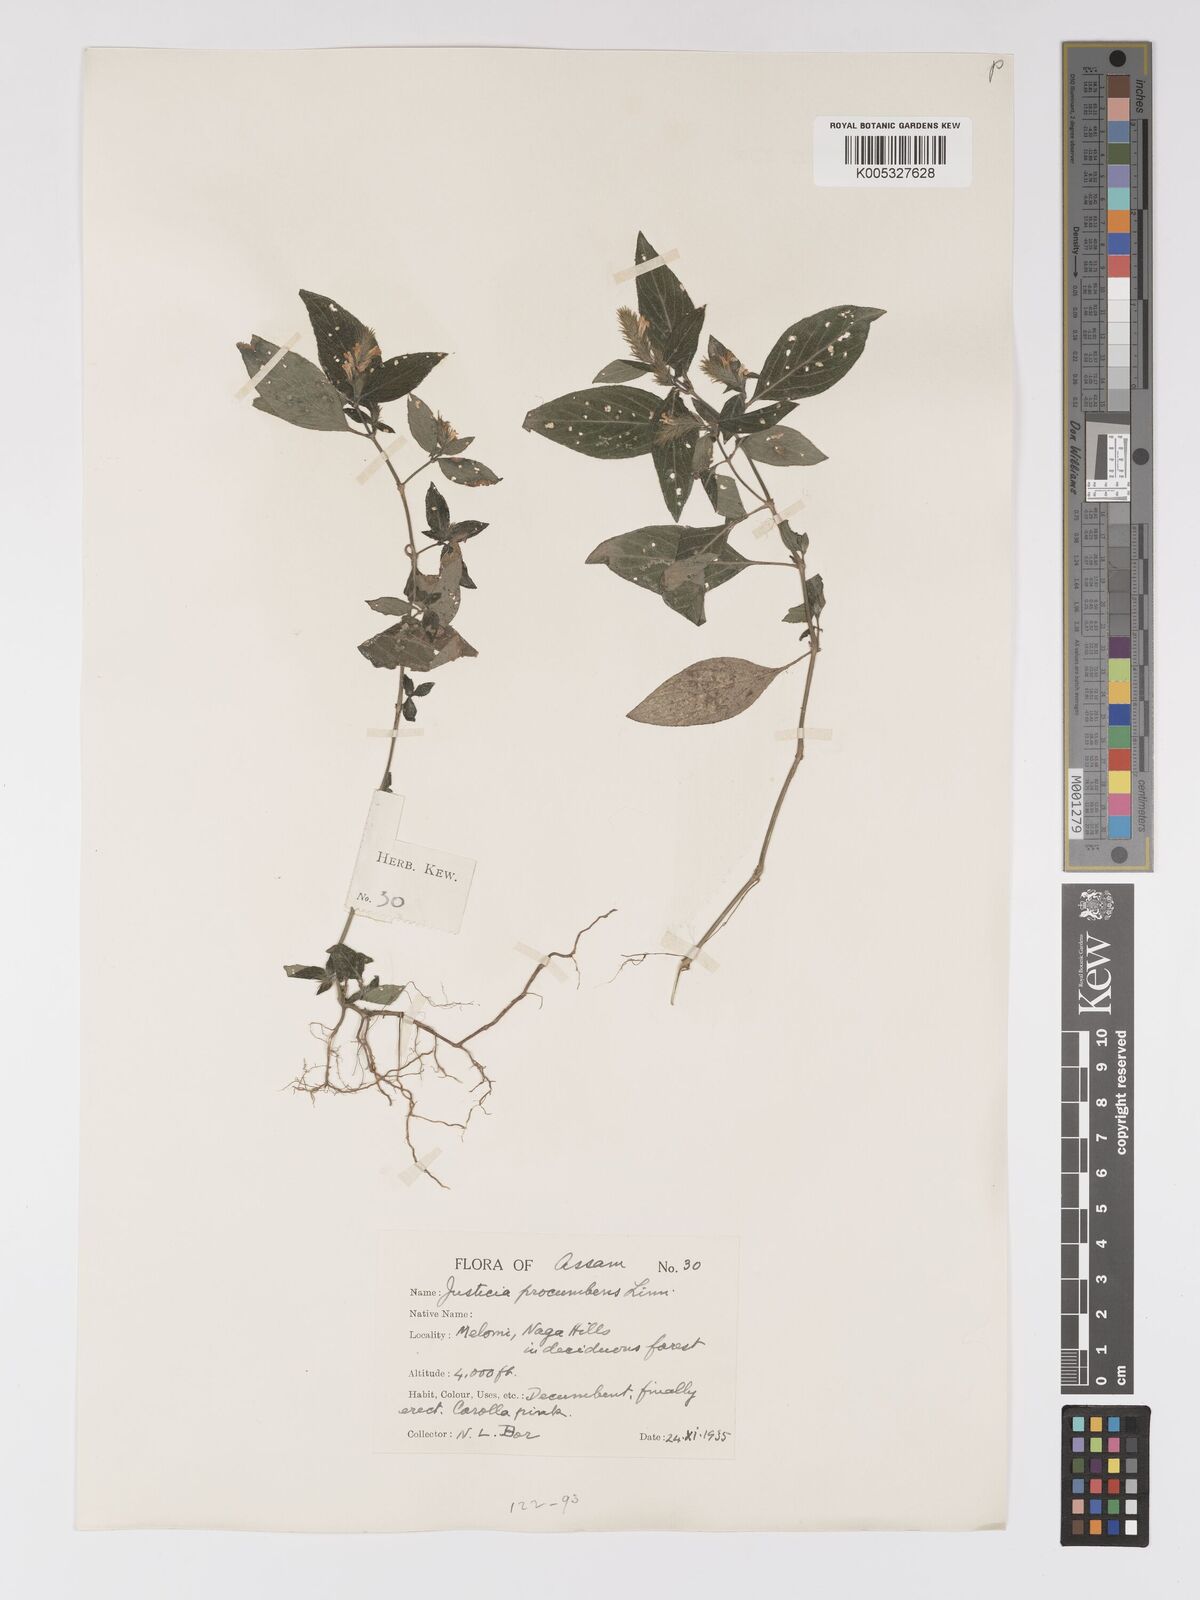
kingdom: Plantae
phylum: Tracheophyta
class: Magnoliopsida
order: Lamiales
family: Acanthaceae
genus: Rostellularia
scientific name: Rostellularia latispica
